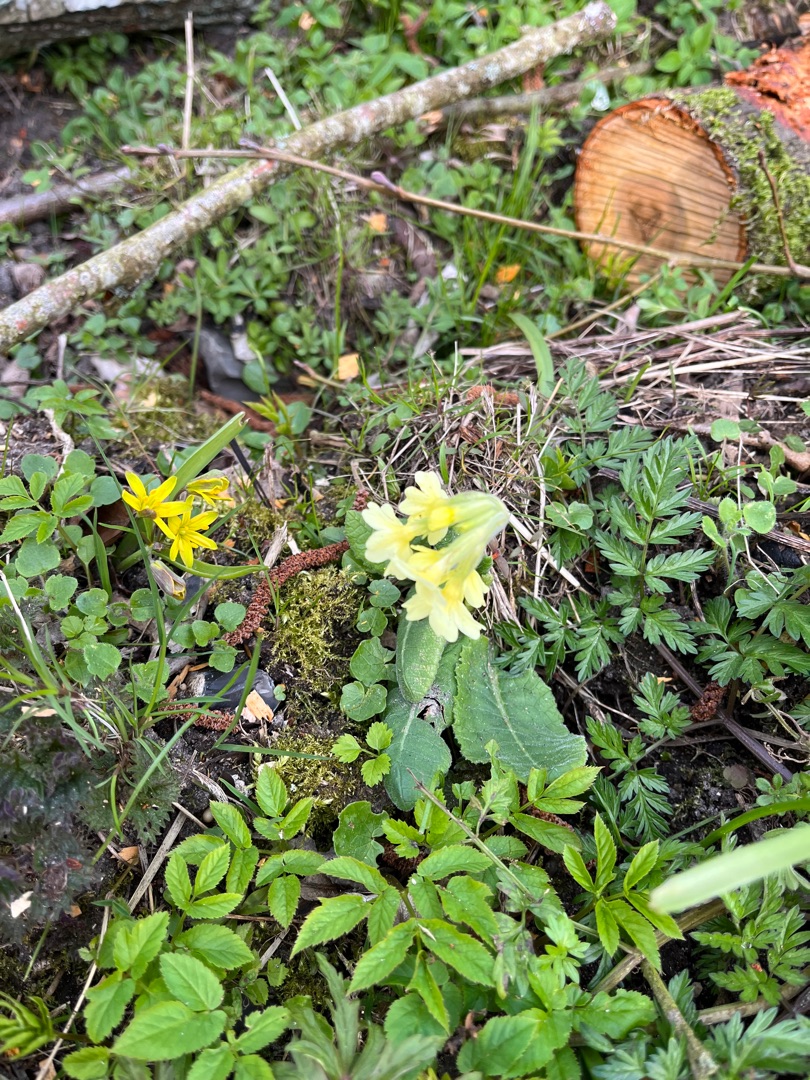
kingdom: Plantae
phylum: Tracheophyta
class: Magnoliopsida
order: Ericales
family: Primulaceae
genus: Primula
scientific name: Primula elatior
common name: Fladkravet kodriver
